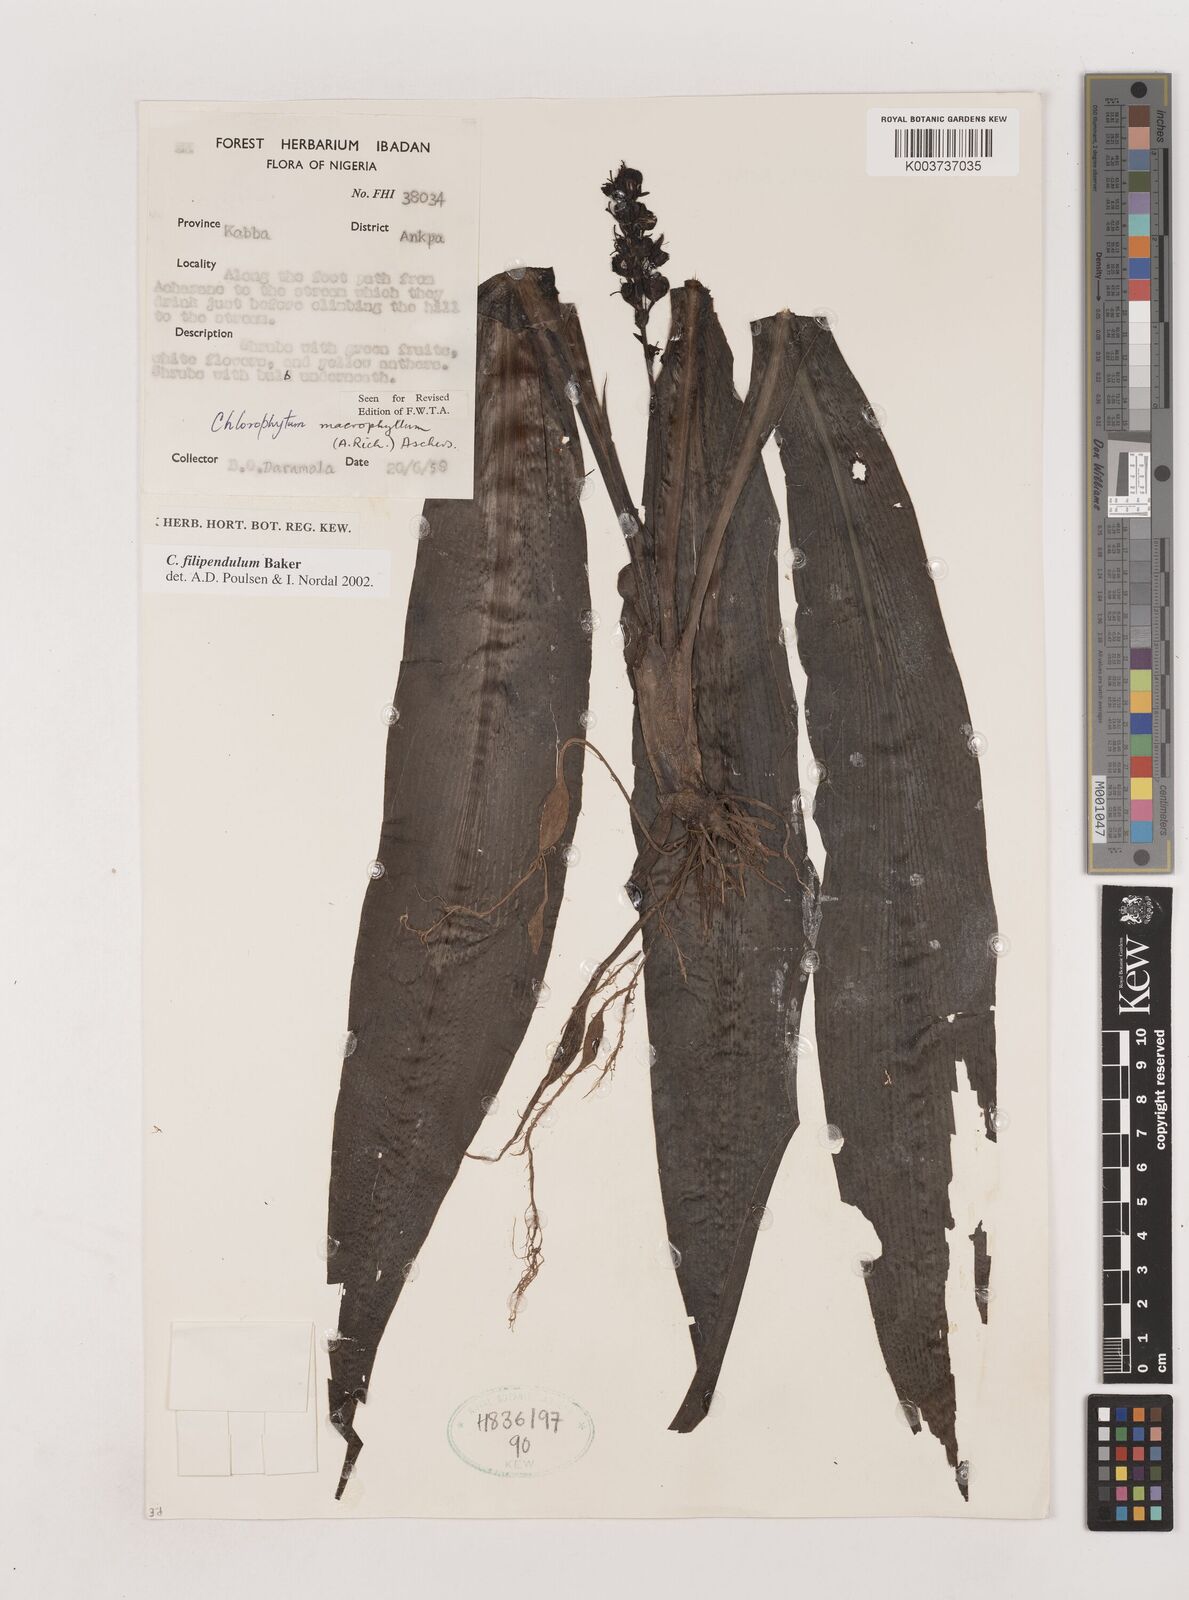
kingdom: Plantae
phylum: Tracheophyta
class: Liliopsida
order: Asparagales
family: Asparagaceae
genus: Chlorophytum
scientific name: Chlorophytum heynei
